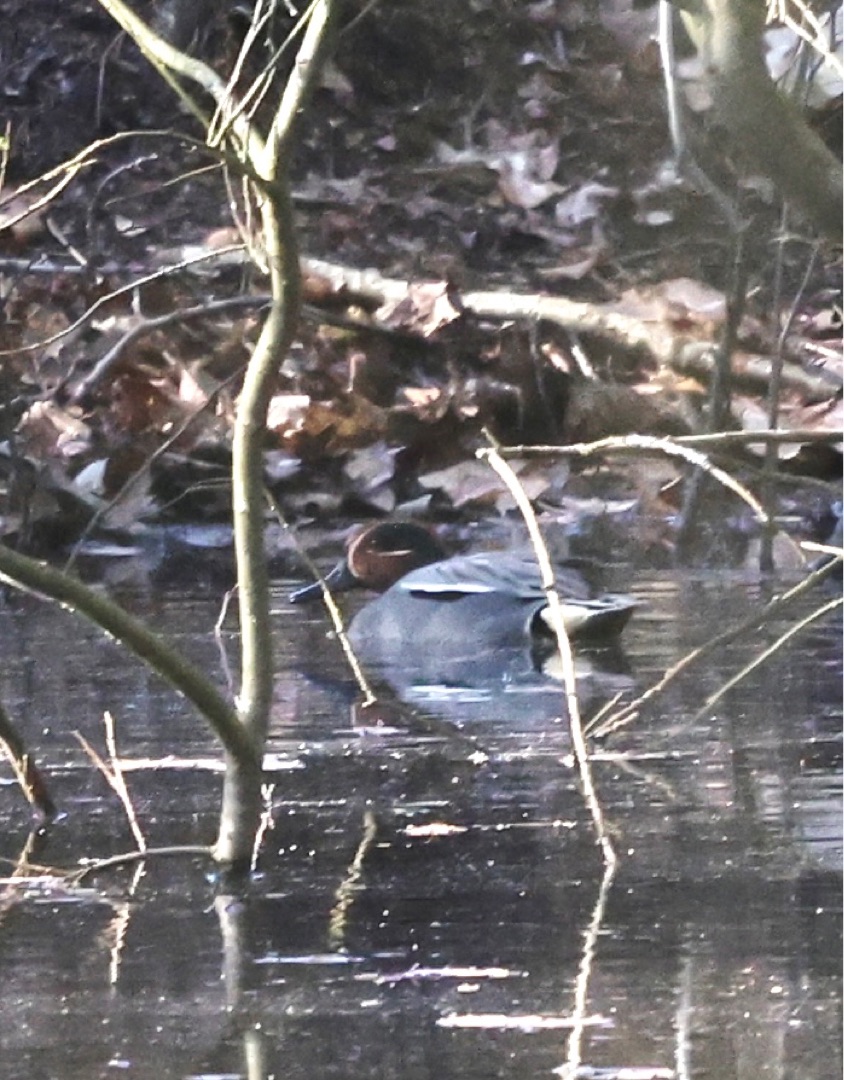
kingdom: Animalia
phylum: Chordata
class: Aves
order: Anseriformes
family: Anatidae
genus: Anas
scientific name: Anas crecca
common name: Krikand
